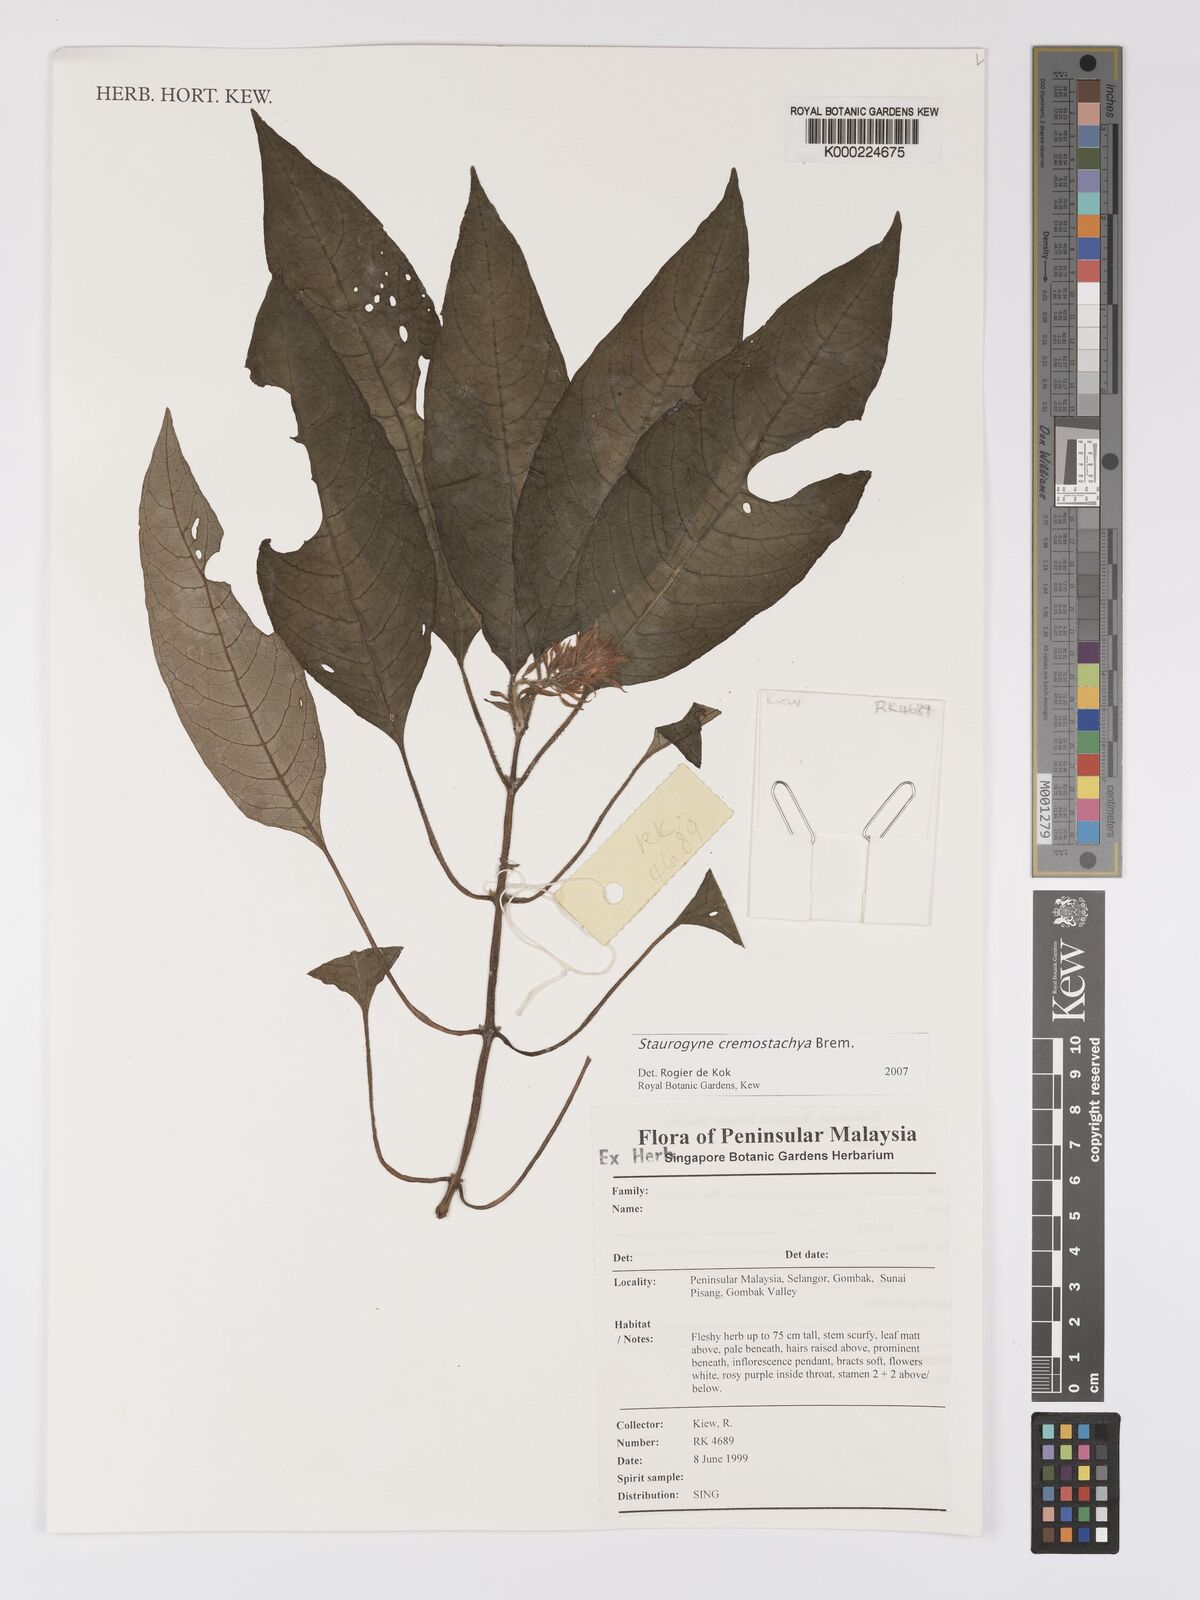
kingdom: Plantae
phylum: Tracheophyta
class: Magnoliopsida
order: Lamiales
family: Acanthaceae
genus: Staurogyne
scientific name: Staurogyne
